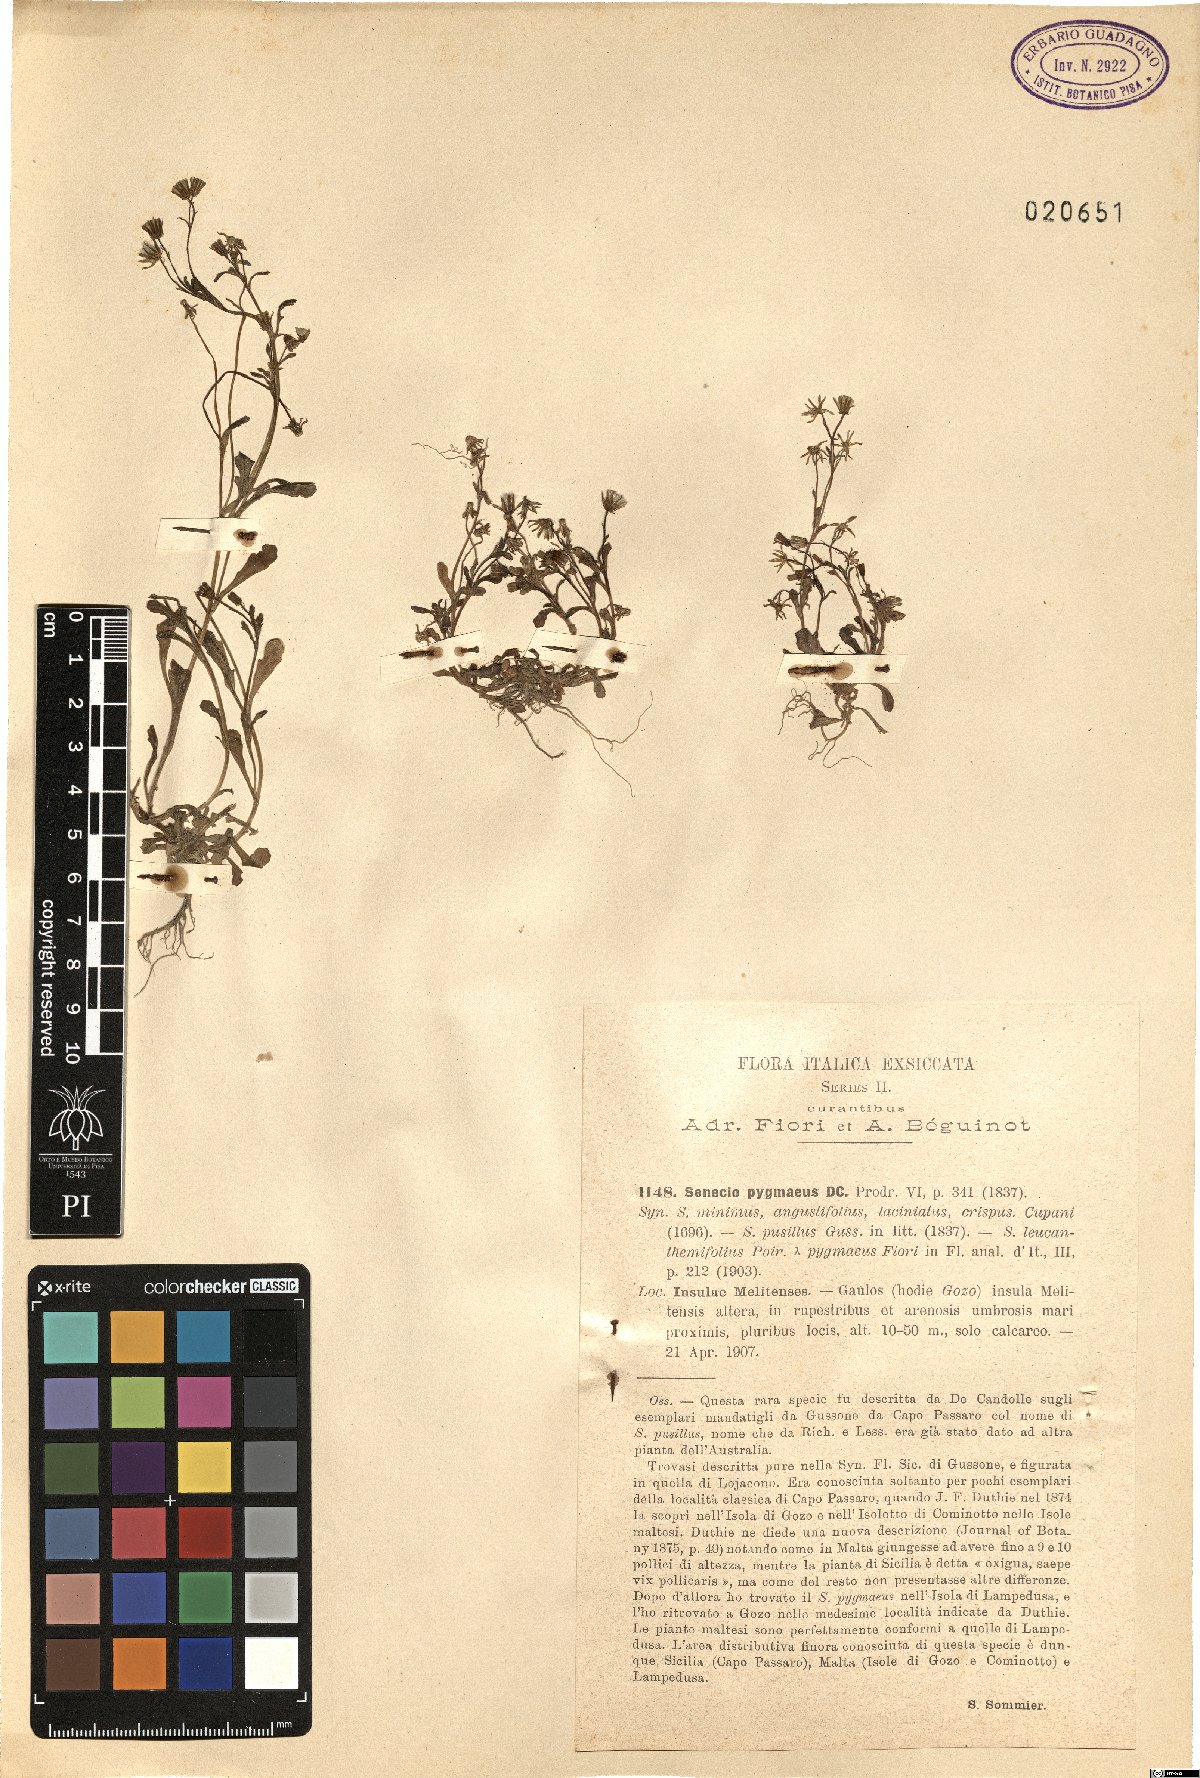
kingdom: Plantae
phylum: Tracheophyta
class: Magnoliopsida
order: Asterales
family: Asteraceae
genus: Senecio
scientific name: Senecio leucanthemifolius
